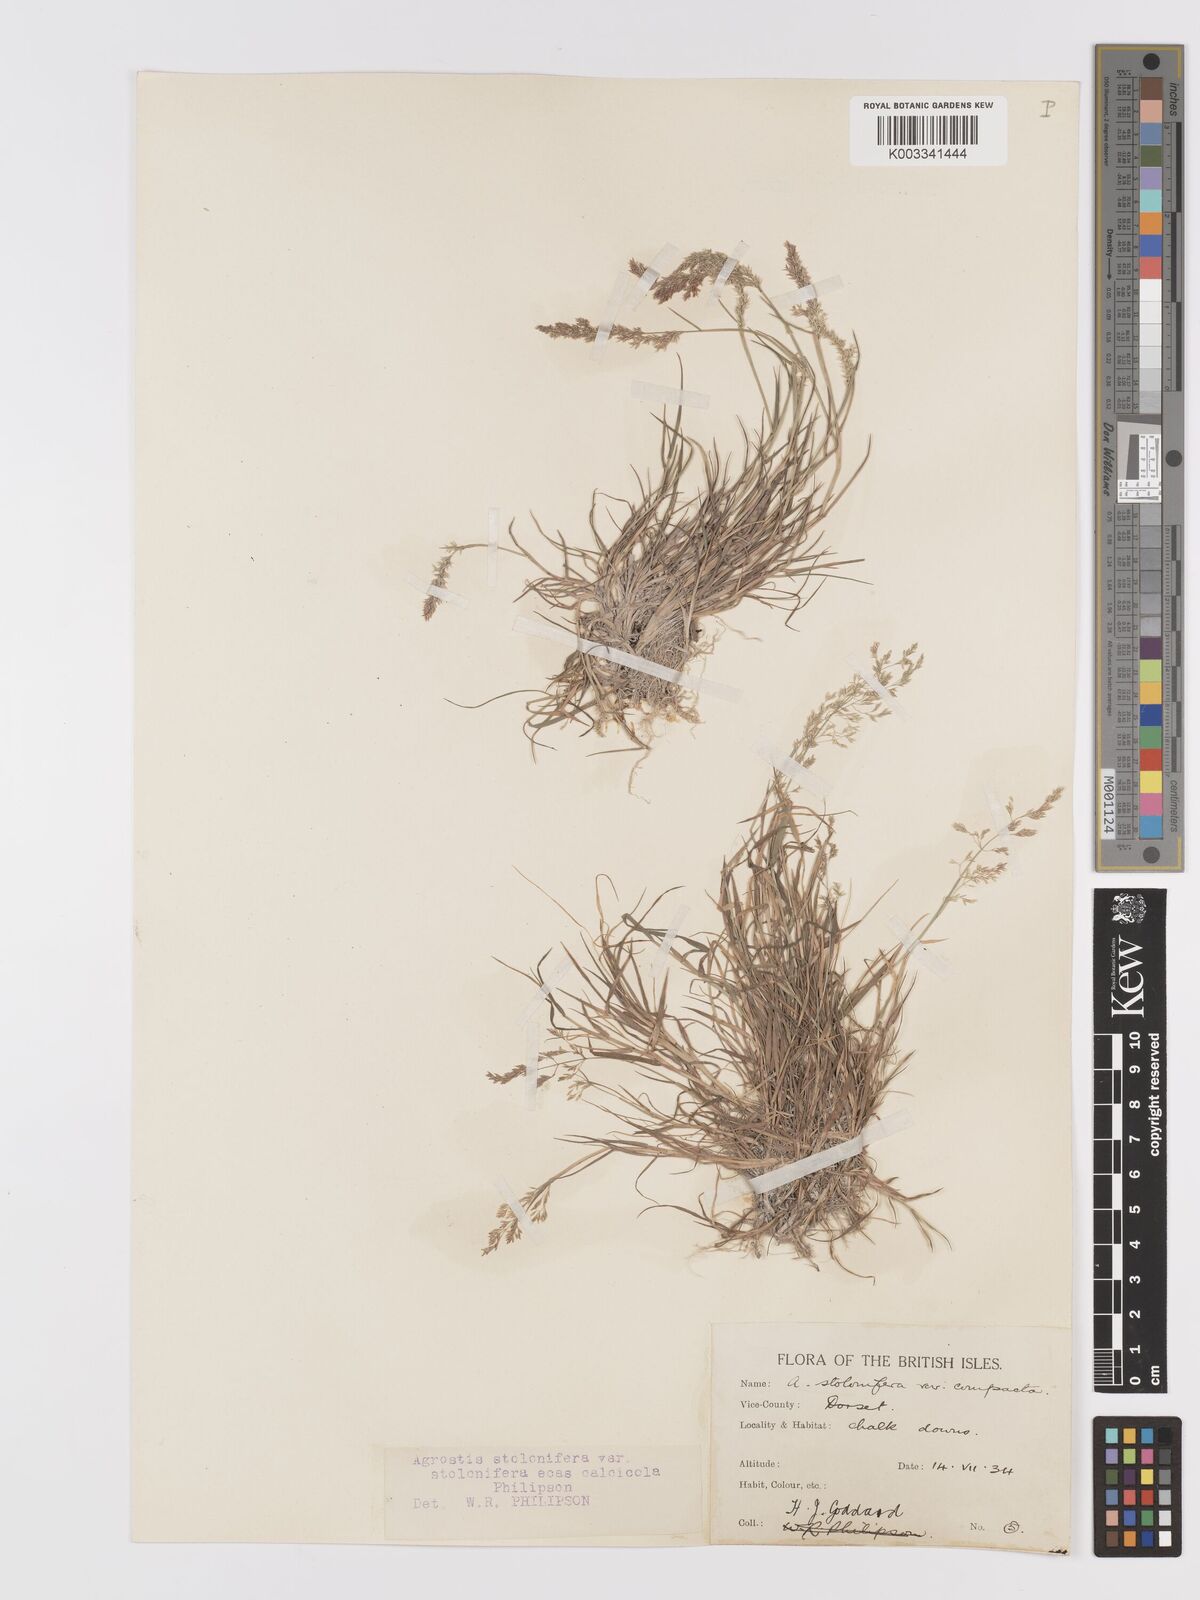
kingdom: Plantae
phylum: Tracheophyta
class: Liliopsida
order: Poales
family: Poaceae
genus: Agrostis
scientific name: Agrostis stolonifera
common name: Creeping bentgrass
